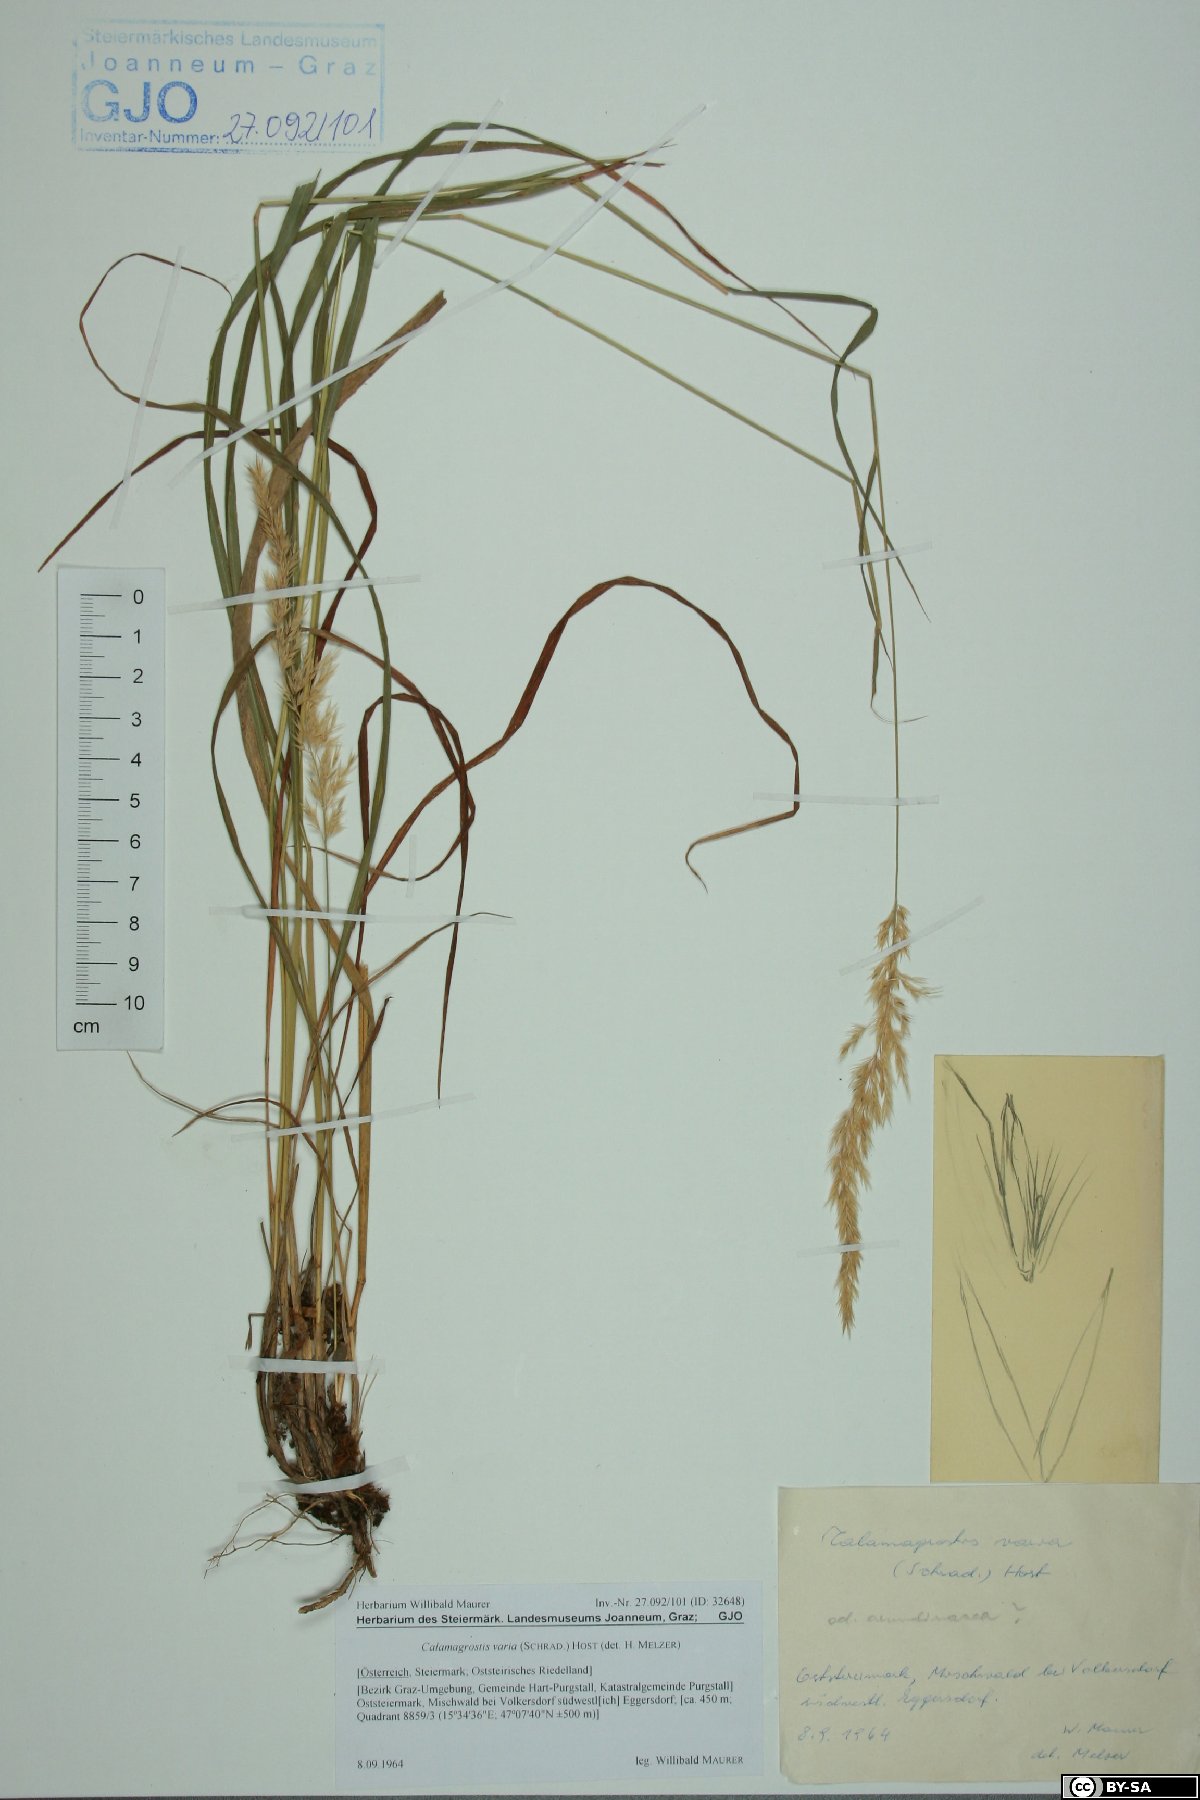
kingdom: Plantae
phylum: Tracheophyta
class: Liliopsida
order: Poales
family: Poaceae
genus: Calamagrostis
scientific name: Calamagrostis varia
